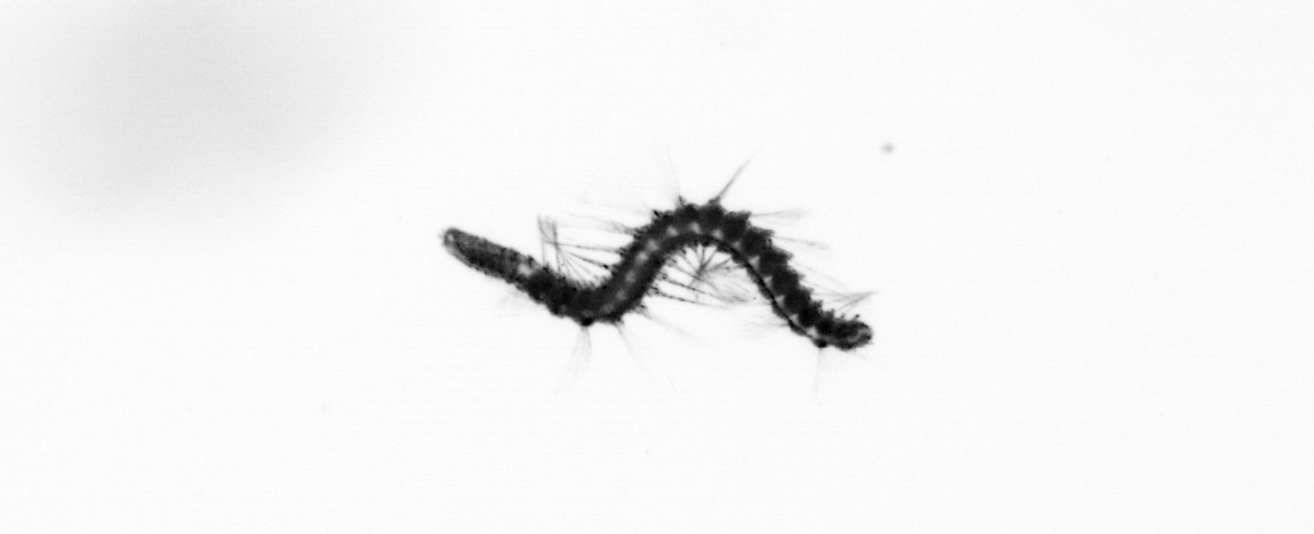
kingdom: Animalia
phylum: Annelida
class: Polychaeta
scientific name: Polychaeta
